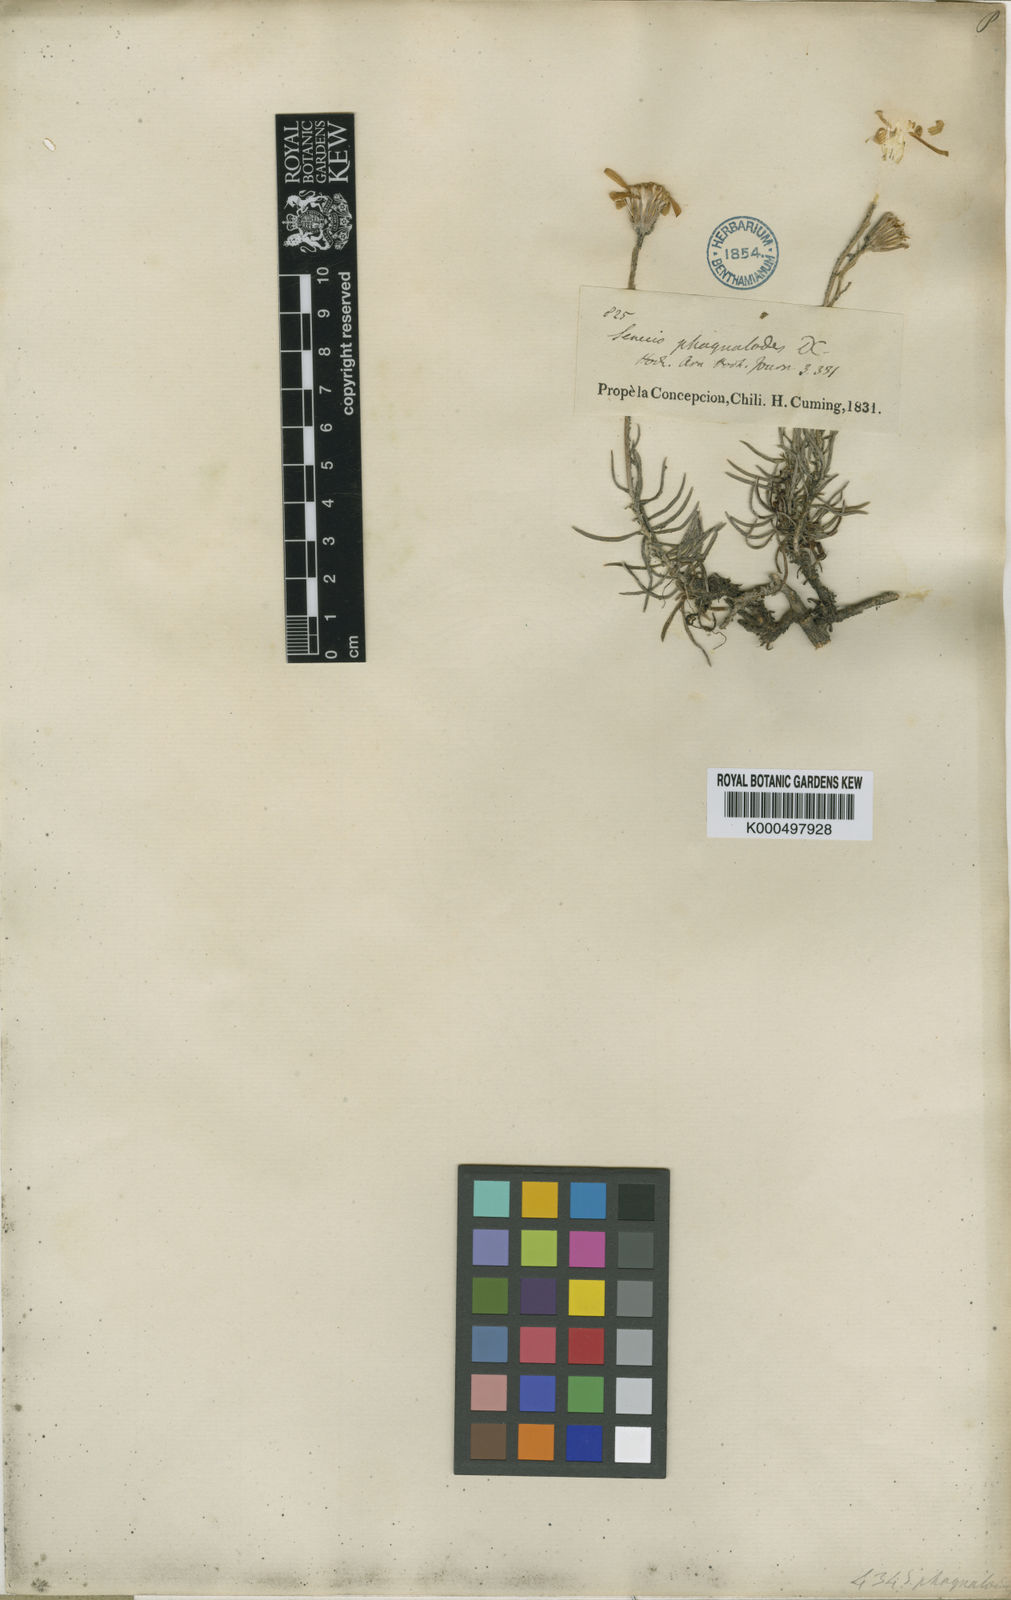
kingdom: Plantae
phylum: Tracheophyta
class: Magnoliopsida
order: Asterales
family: Asteraceae
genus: Senecio
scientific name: Senecio chilensis
